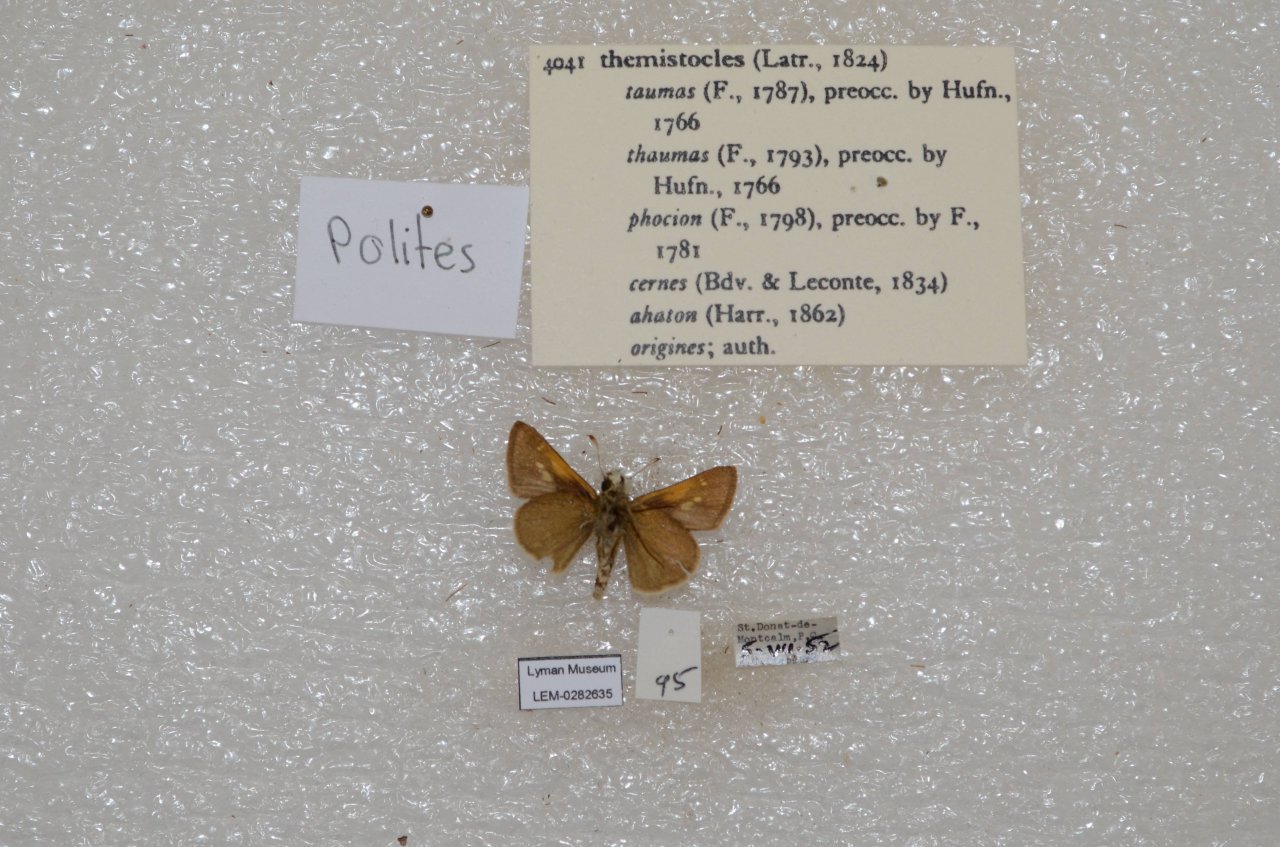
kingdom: Animalia
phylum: Arthropoda
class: Insecta
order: Lepidoptera
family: Hesperiidae
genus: Polites
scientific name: Polites themistocles
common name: Tawny-edged Skipper
